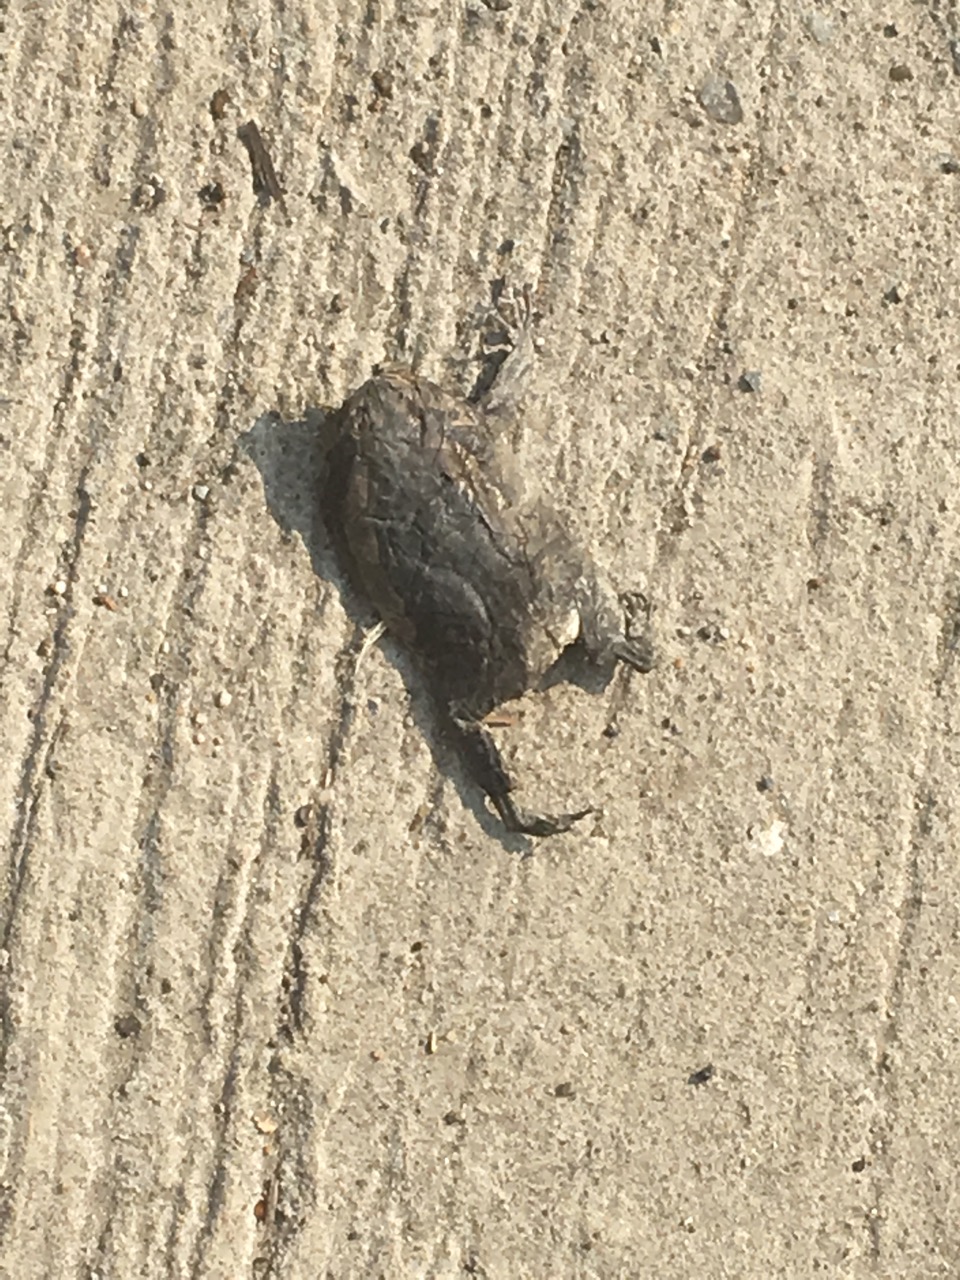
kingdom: Animalia
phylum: Chordata
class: Amphibia
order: Anura
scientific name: Anura
